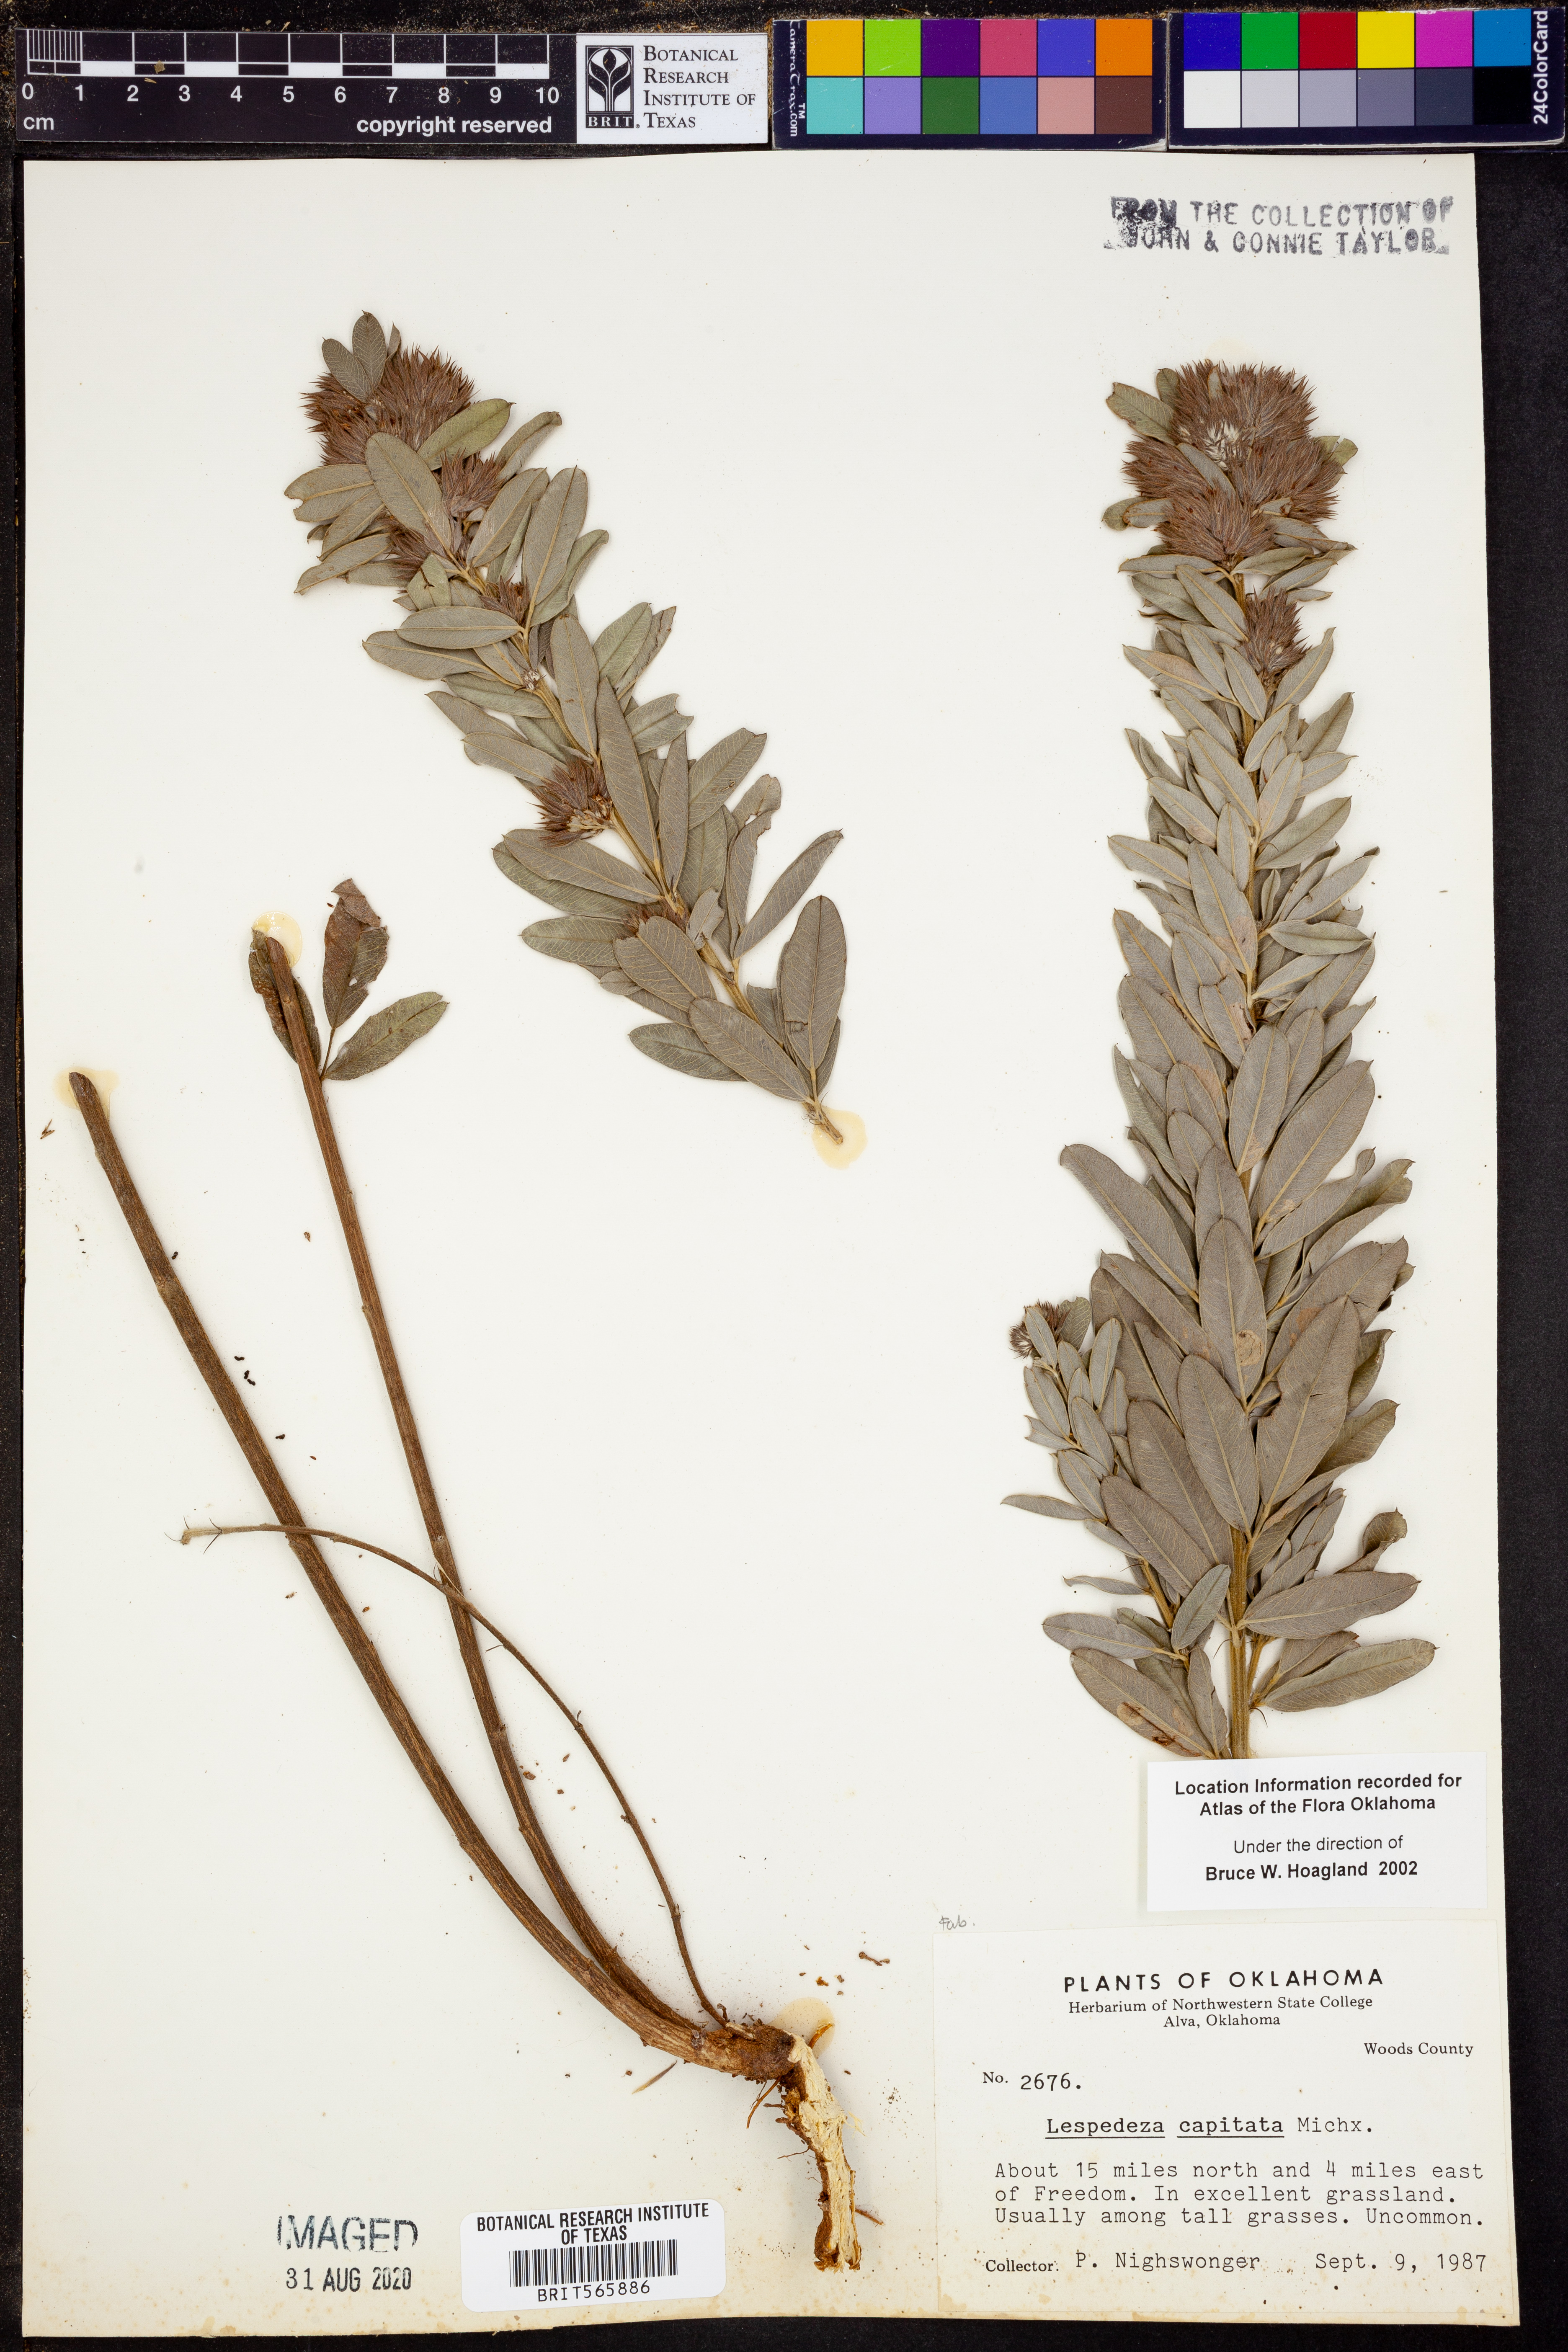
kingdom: Plantae
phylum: Tracheophyta
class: Magnoliopsida
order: Fabales
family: Fabaceae
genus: Lespedeza
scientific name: Lespedeza capitata
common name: Dusty clover
